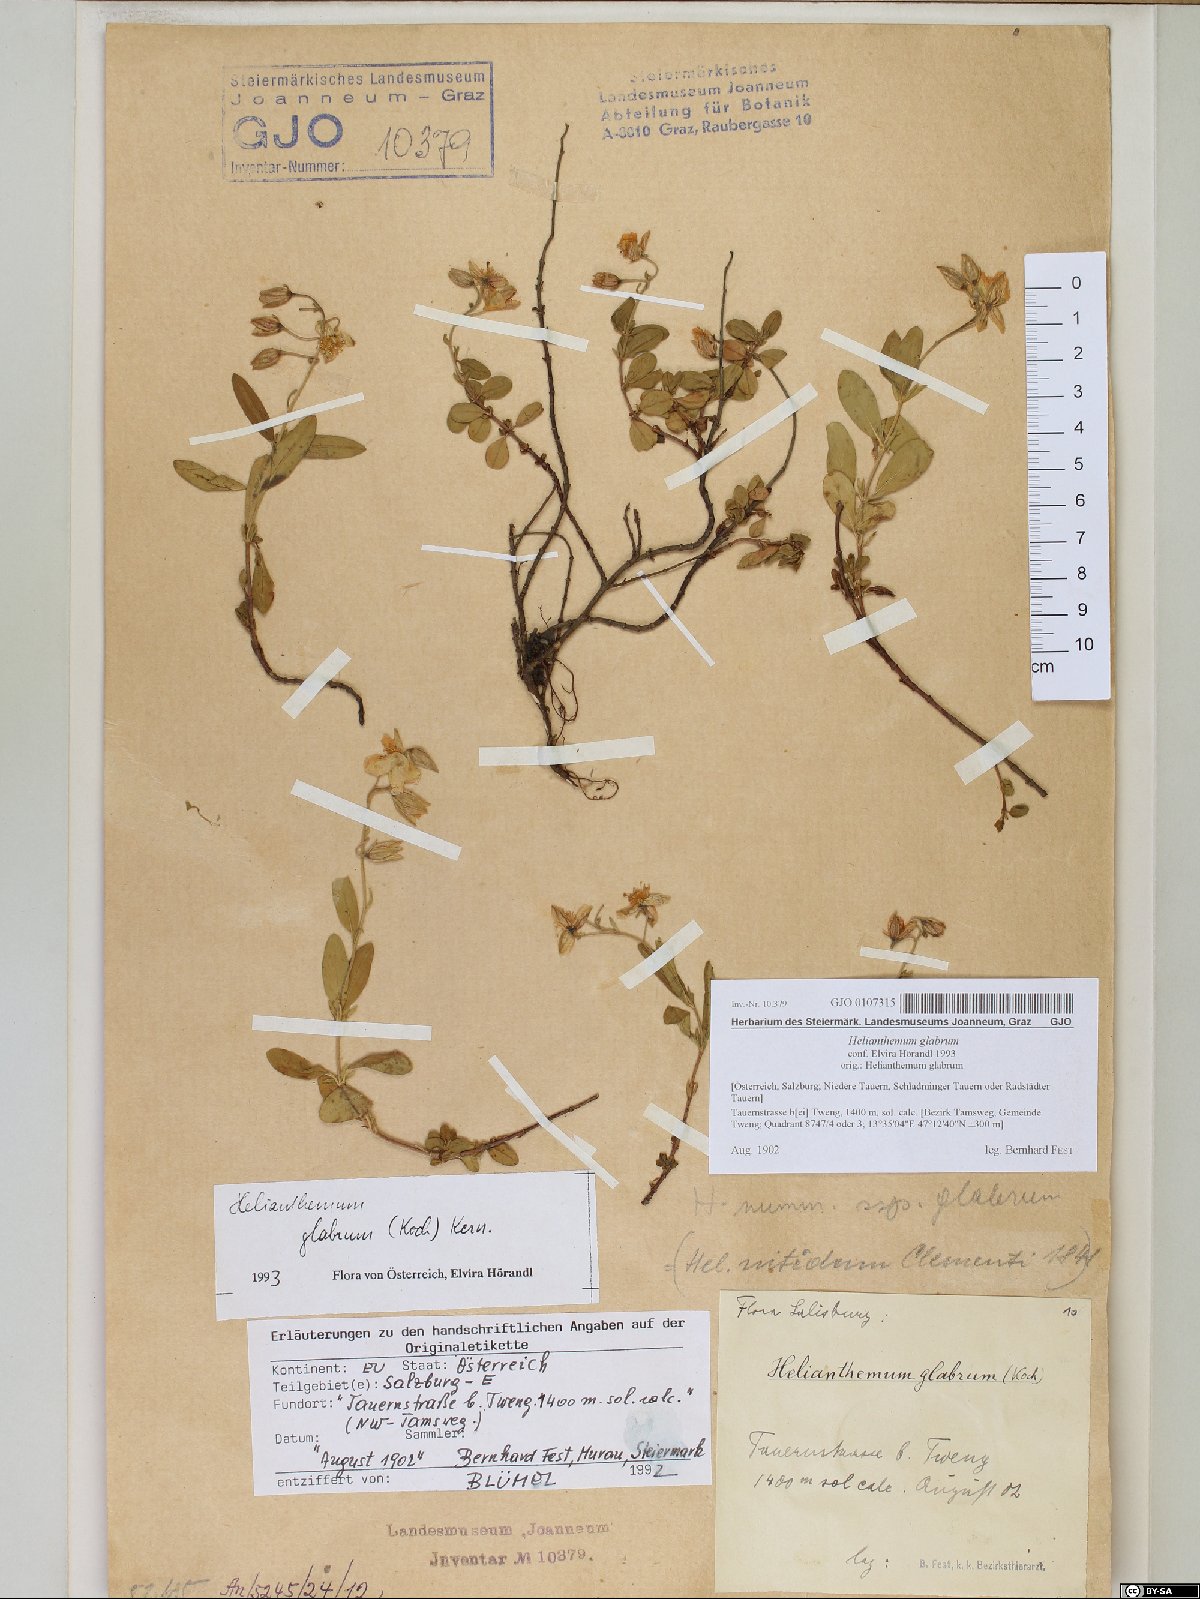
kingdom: Plantae
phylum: Tracheophyta
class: Magnoliopsida
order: Malvales
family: Cistaceae
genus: Helianthemum
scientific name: Helianthemum nummularium
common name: Common rock-rose
